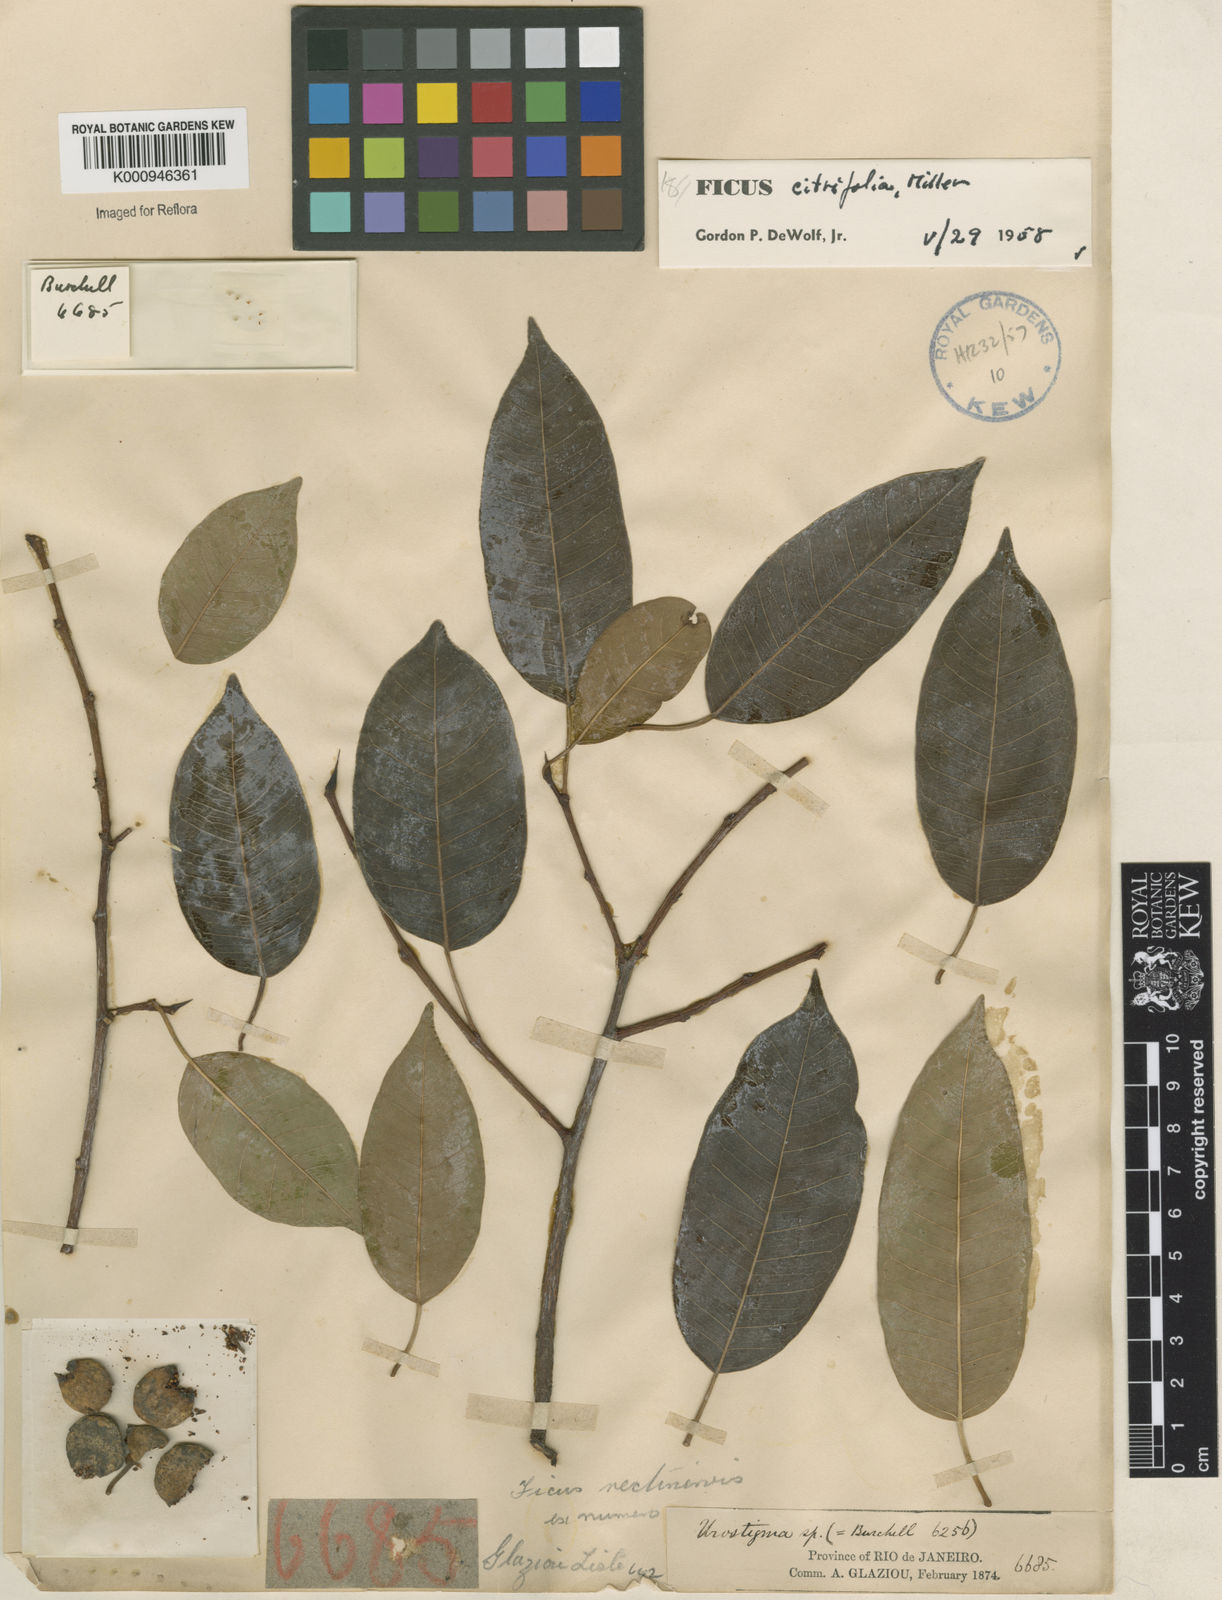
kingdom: Plantae
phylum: Tracheophyta
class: Magnoliopsida
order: Rosales
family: Moraceae
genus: Ficus
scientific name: Ficus citrifolia
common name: Strangler fig
